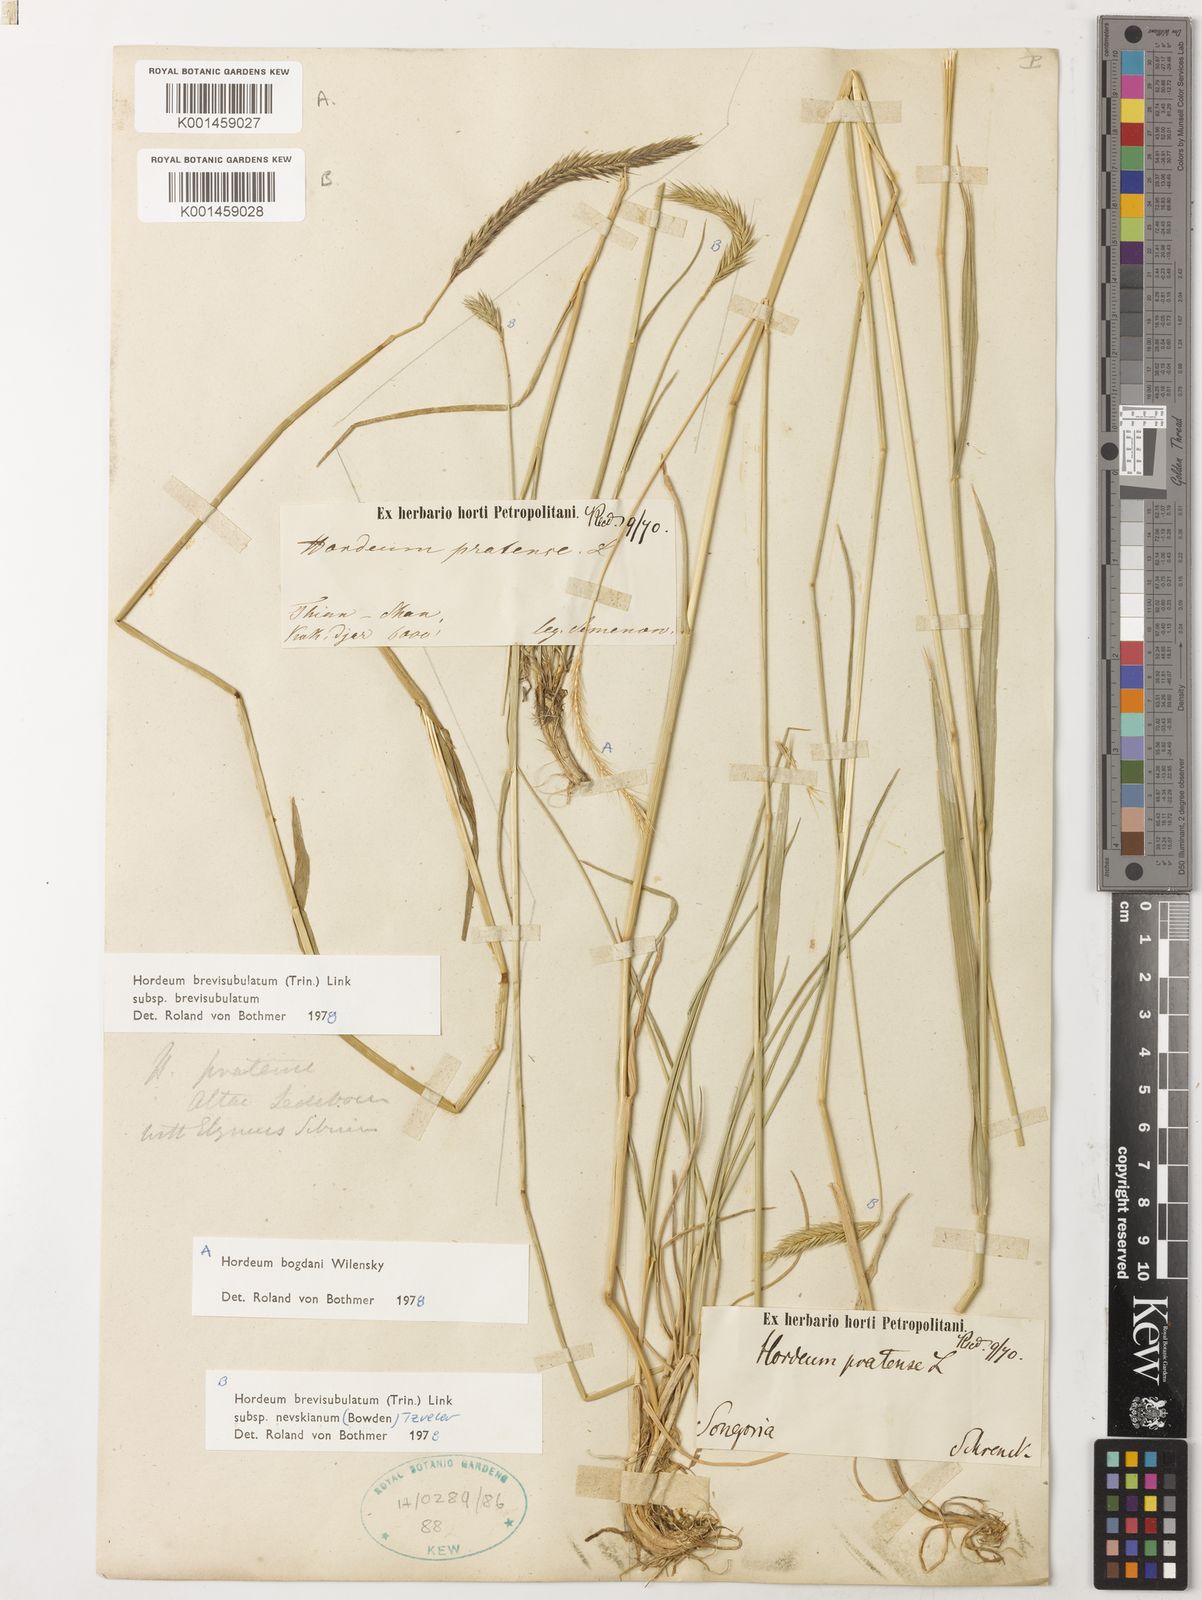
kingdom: Plantae
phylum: Tracheophyta
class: Liliopsida
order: Poales
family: Poaceae
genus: Hordeum
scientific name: Hordeum bogdanii
